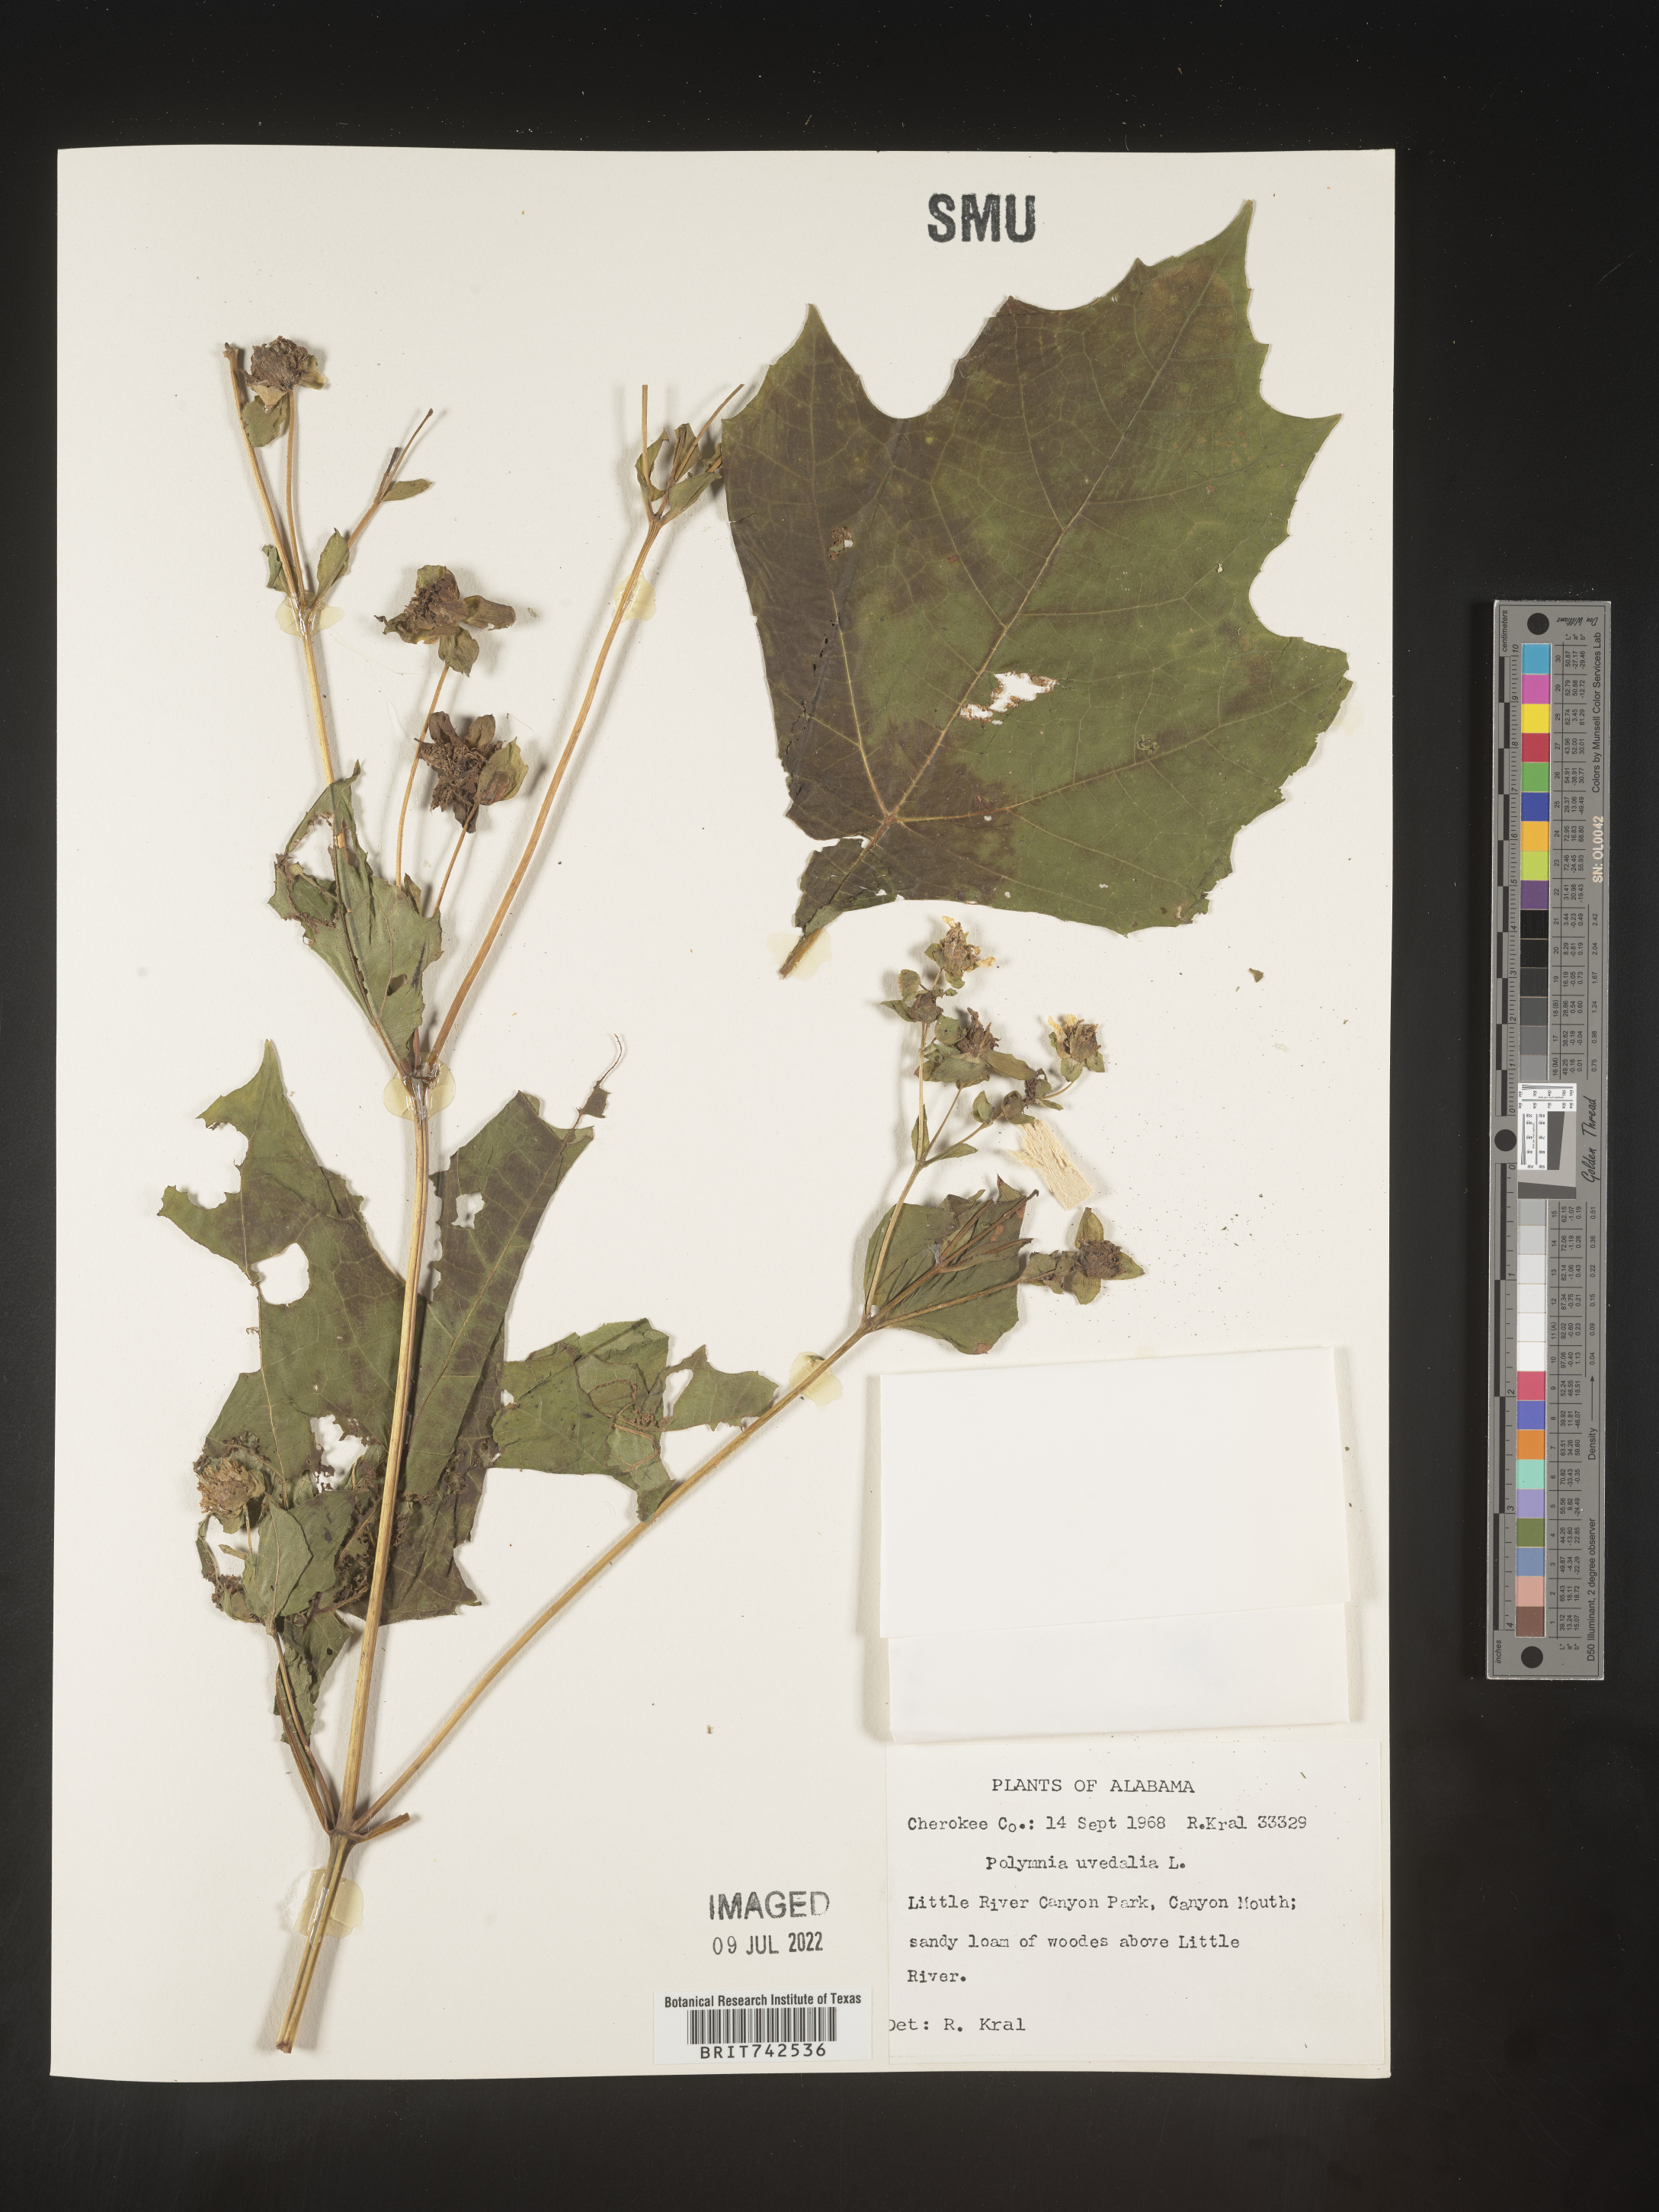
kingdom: Plantae
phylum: Tracheophyta
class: Magnoliopsida
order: Asterales
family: Asteraceae
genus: Smallanthus
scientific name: Smallanthus uvedalia
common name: Bear's-foot
